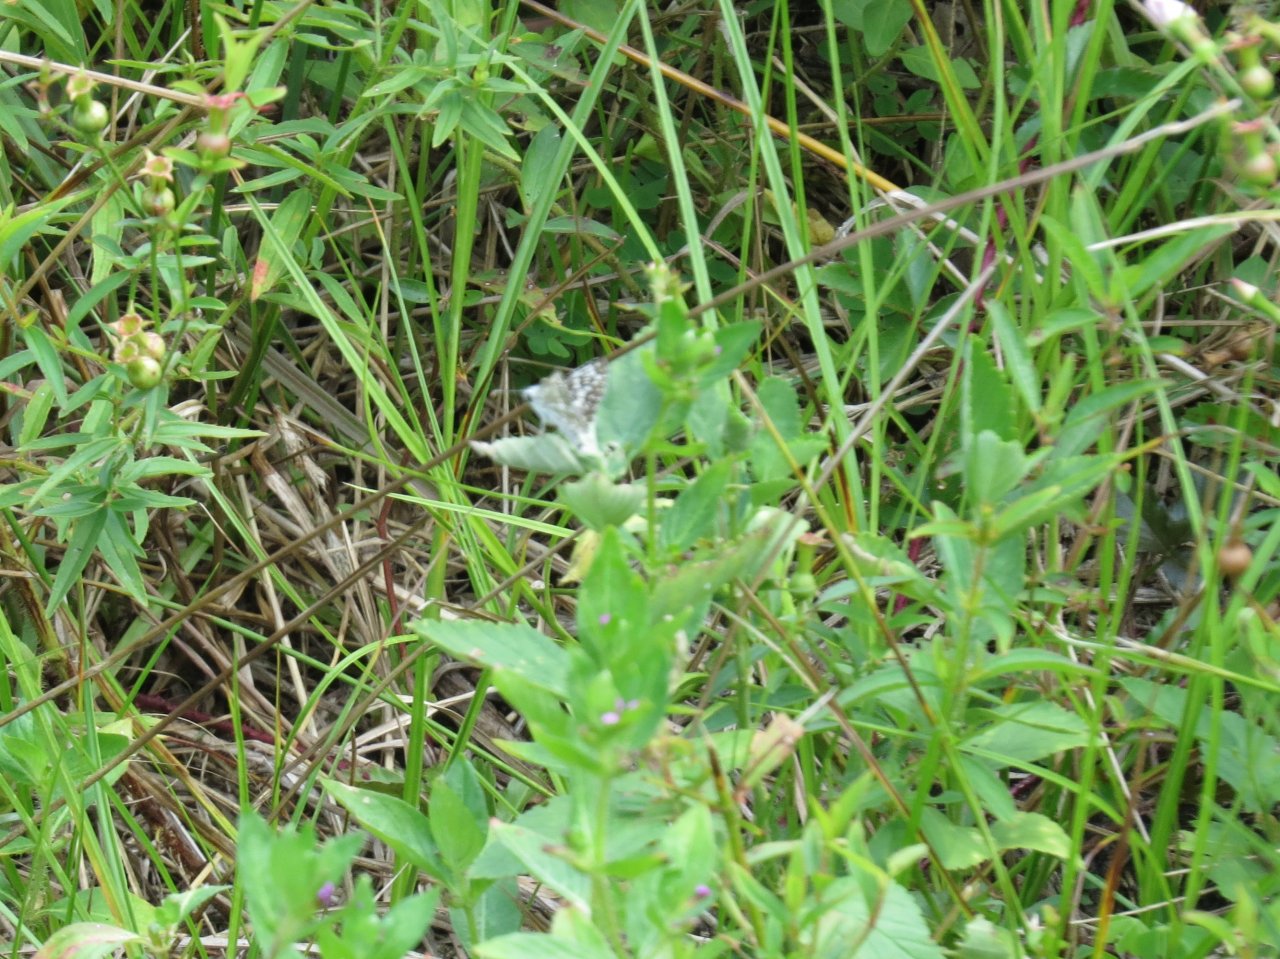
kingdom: Animalia
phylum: Arthropoda
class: Insecta
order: Lepidoptera
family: Hesperiidae
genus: Pyrgus
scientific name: Pyrgus communis
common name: White Checkered-Skipper
